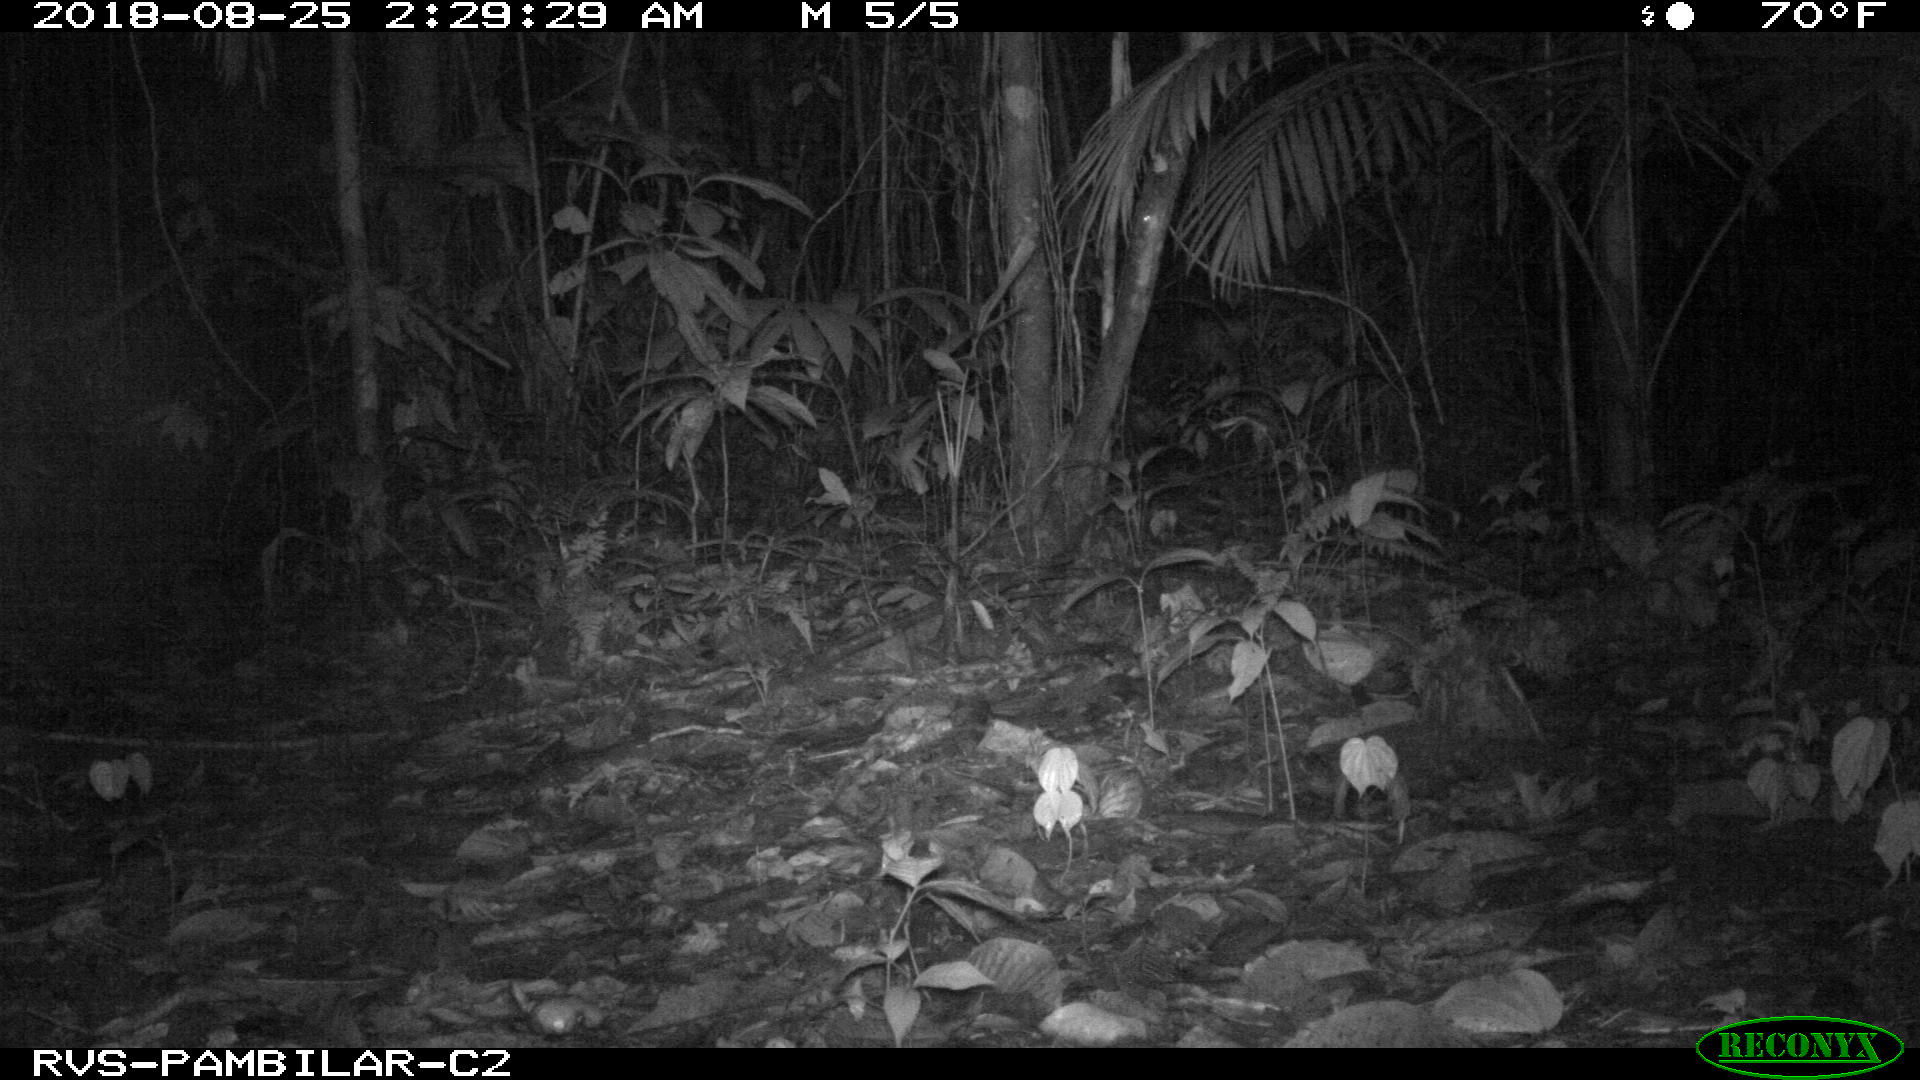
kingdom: Animalia
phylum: Chordata
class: Mammalia
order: Rodentia
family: Cuniculidae
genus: Cuniculus
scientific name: Cuniculus paca
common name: Lowland paca
